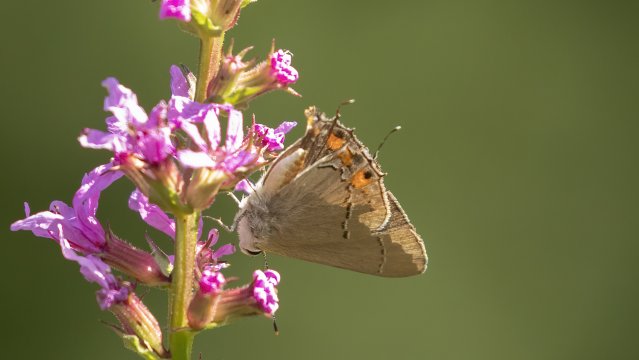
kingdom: Animalia
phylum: Arthropoda
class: Insecta
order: Lepidoptera
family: Lycaenidae
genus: Strymon
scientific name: Strymon melinus
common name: Gray Hairstreak
